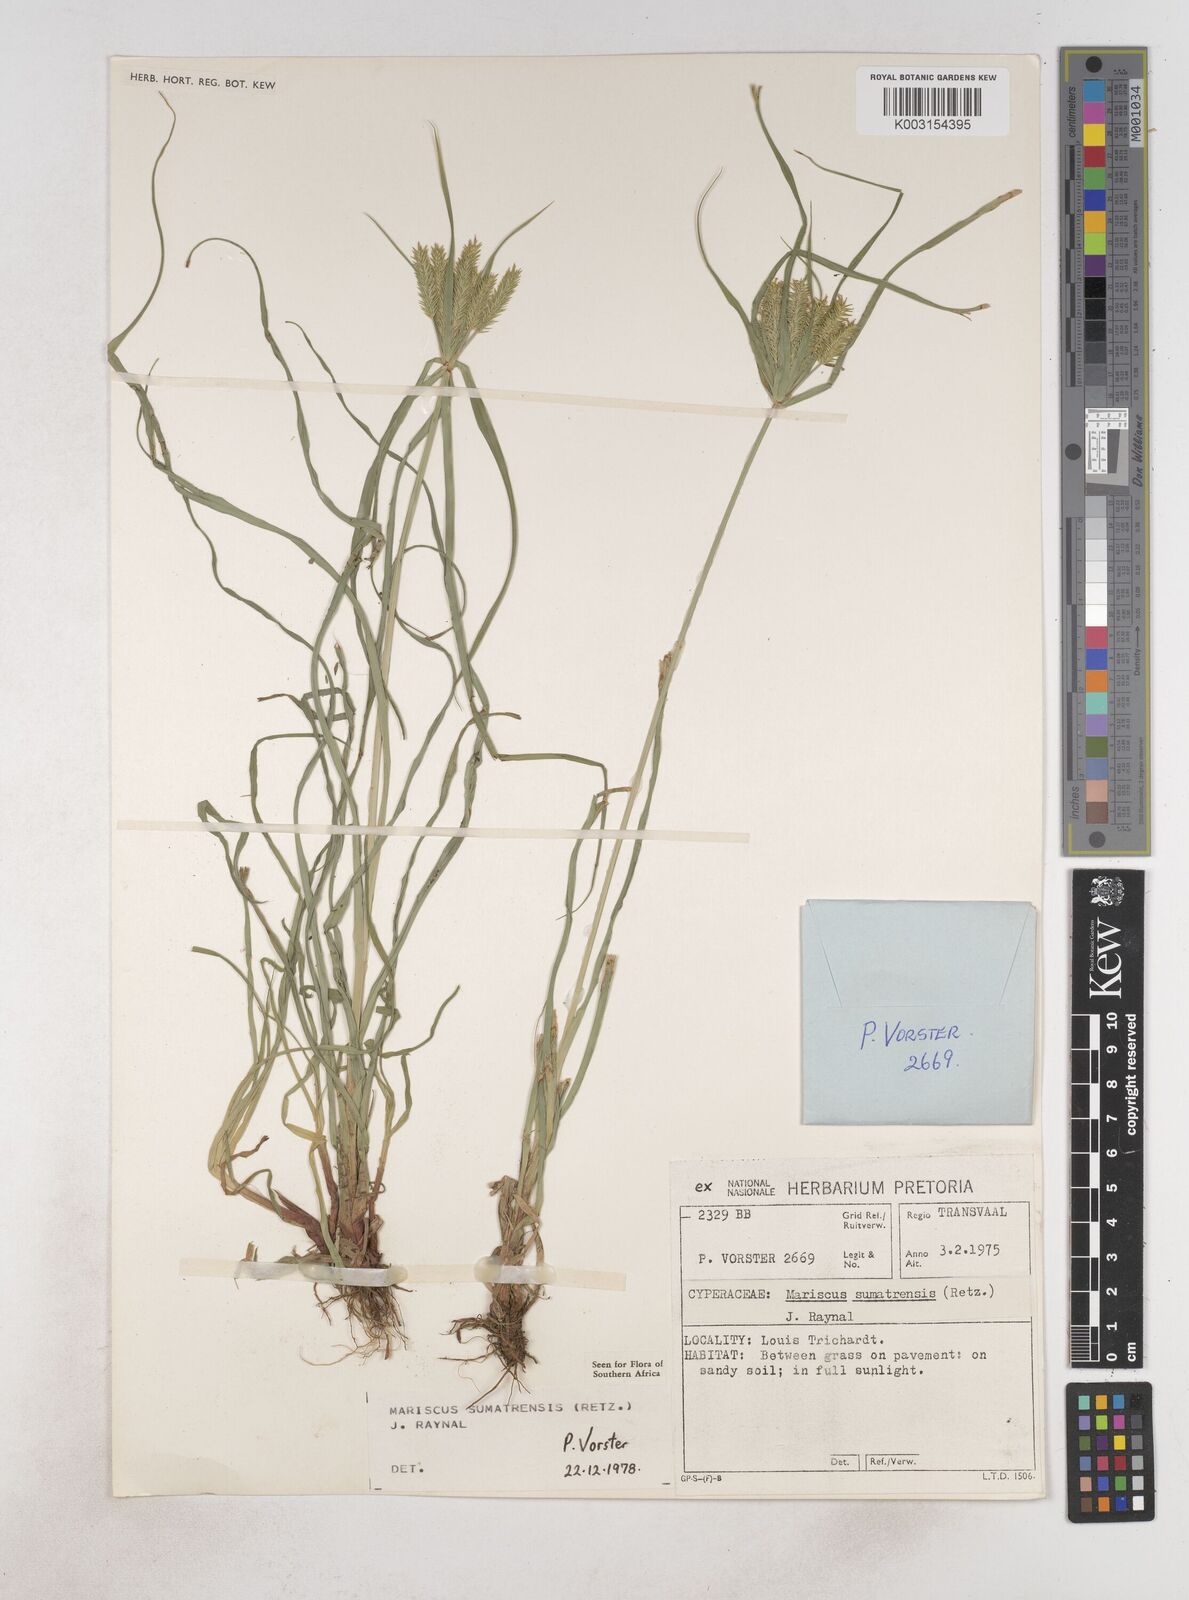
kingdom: Plantae
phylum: Tracheophyta
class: Liliopsida
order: Poales
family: Cyperaceae
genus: Cyperus
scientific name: Cyperus cyperoides
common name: Pacific island flat sedge
